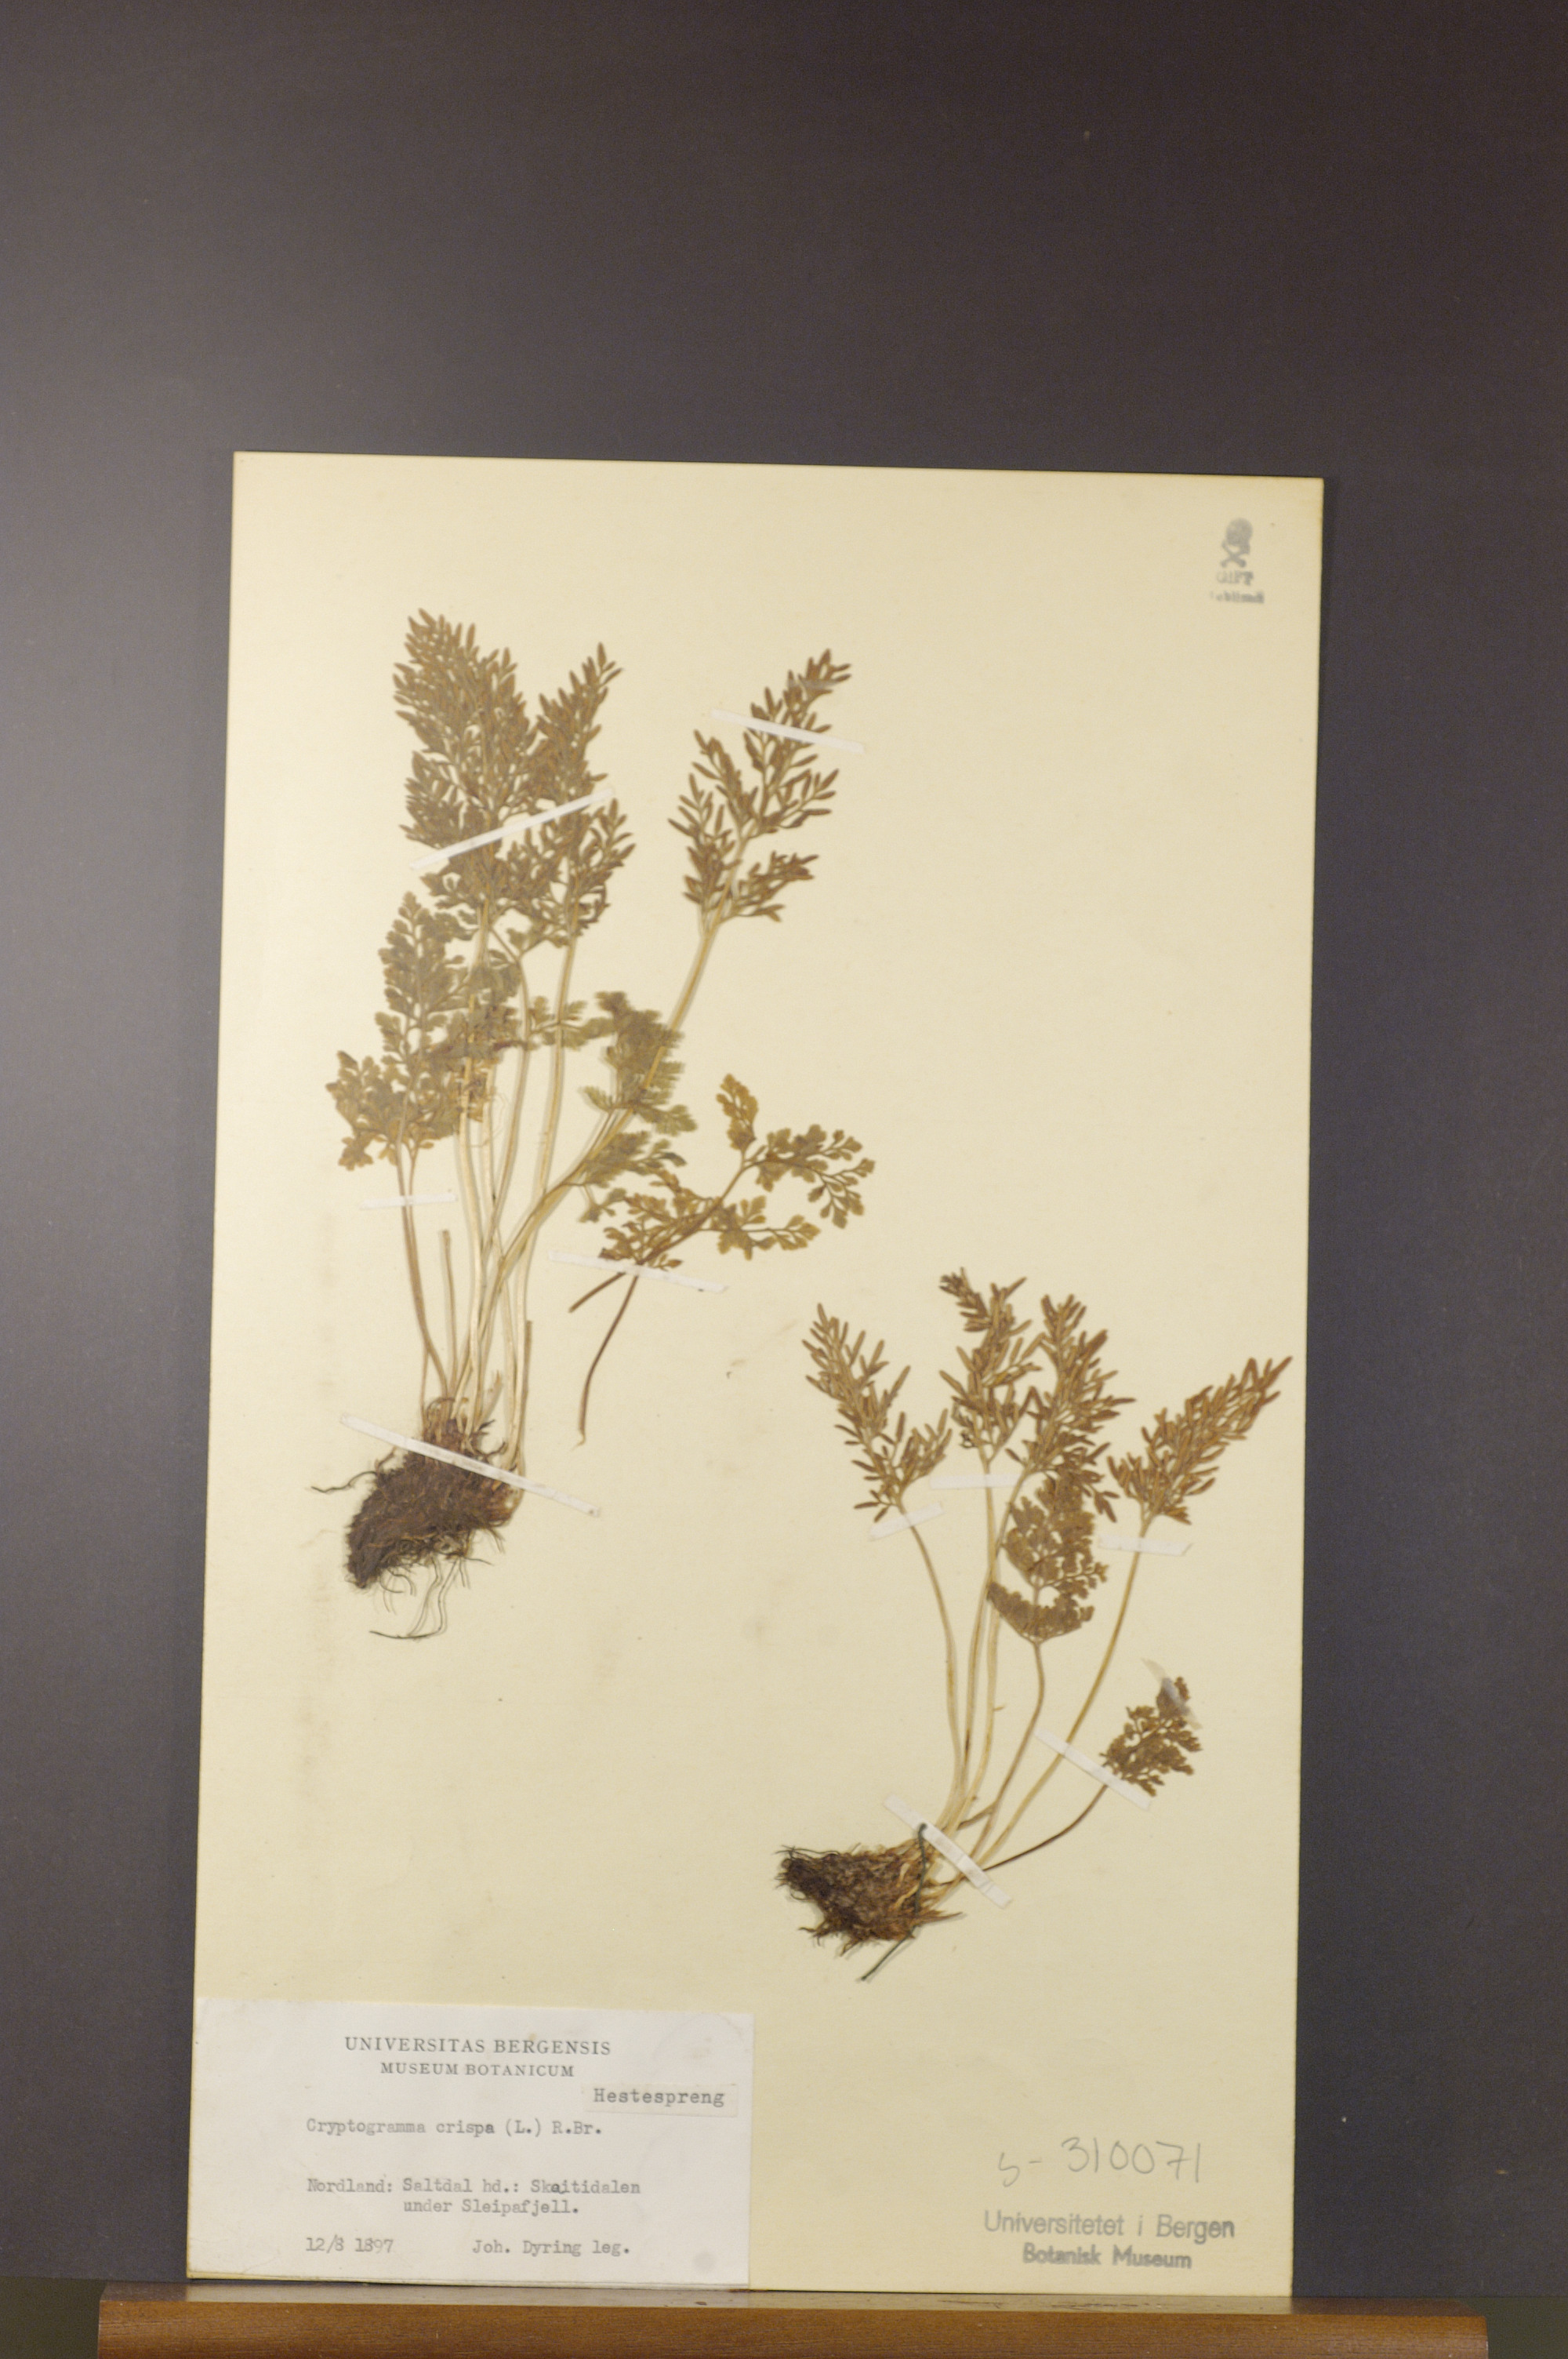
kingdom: Plantae
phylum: Tracheophyta
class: Polypodiopsida
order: Polypodiales
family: Pteridaceae
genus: Cryptogramma
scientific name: Cryptogramma crispa
